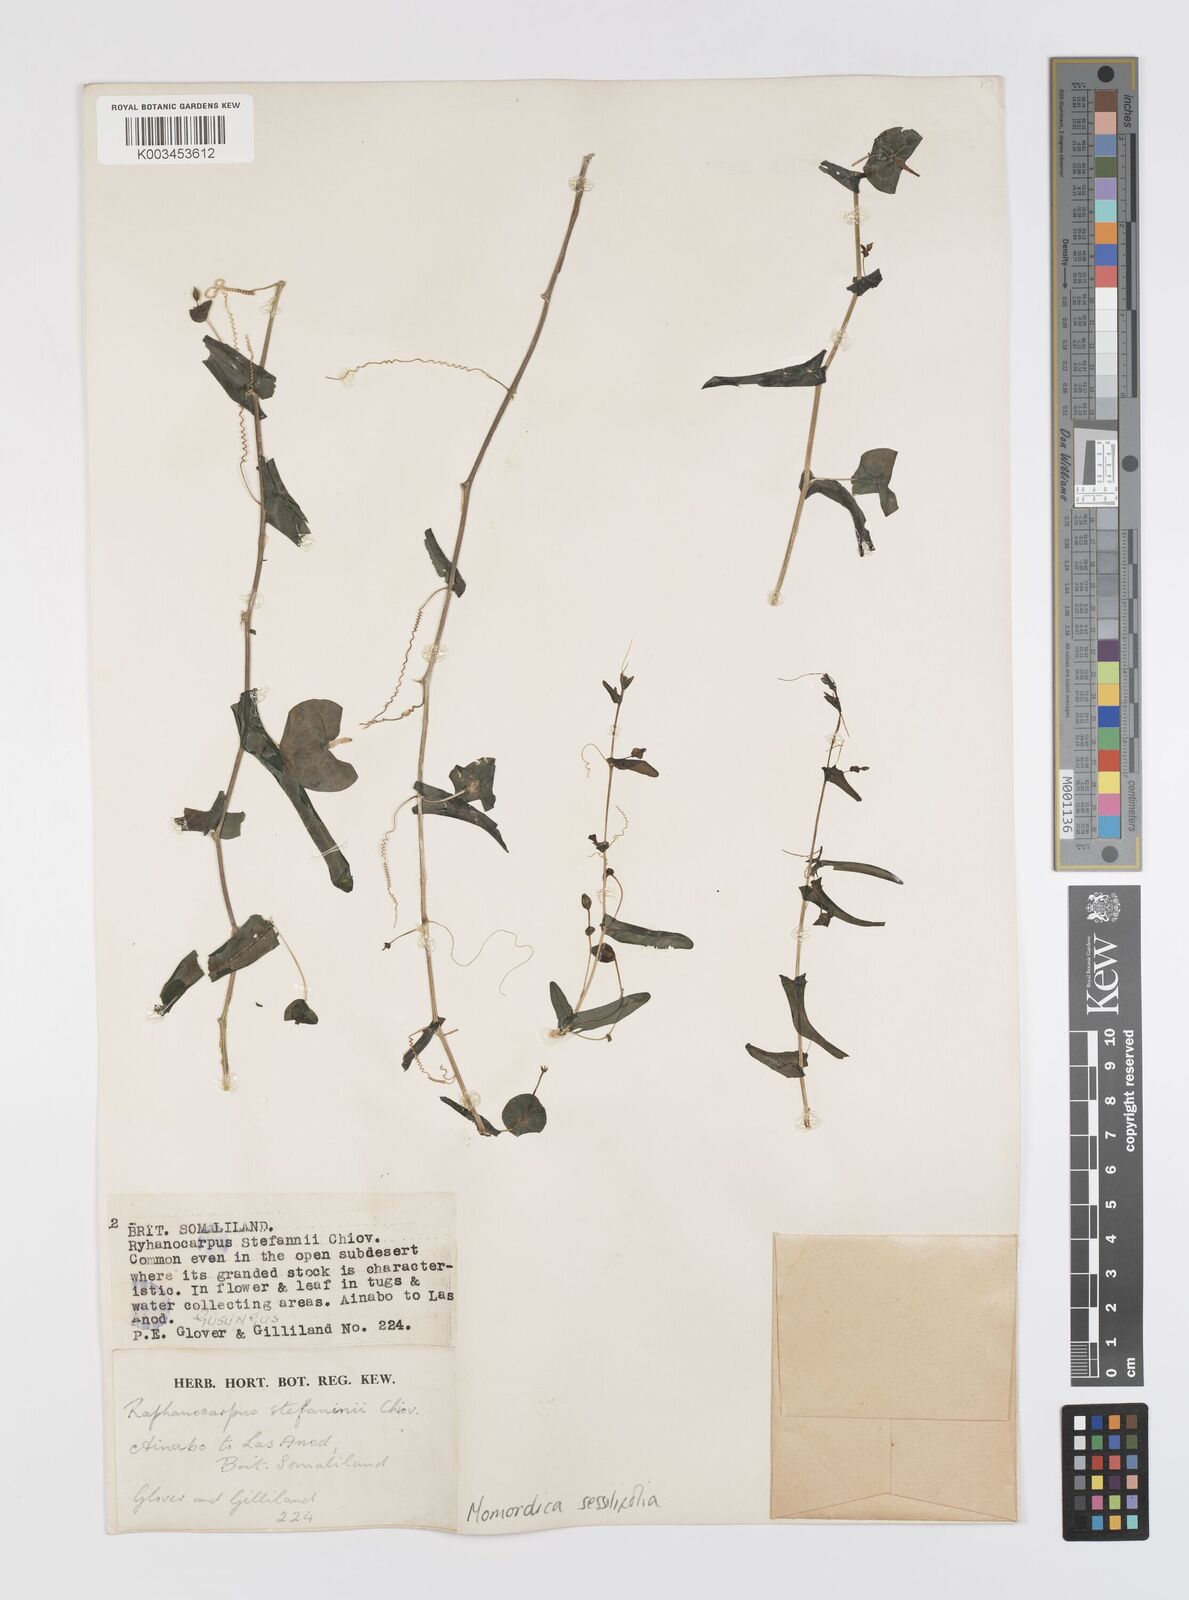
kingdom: Plantae
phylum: Tracheophyta
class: Magnoliopsida
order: Cucurbitales
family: Cucurbitaceae
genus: Momordica
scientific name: Momordica sessilifolia
